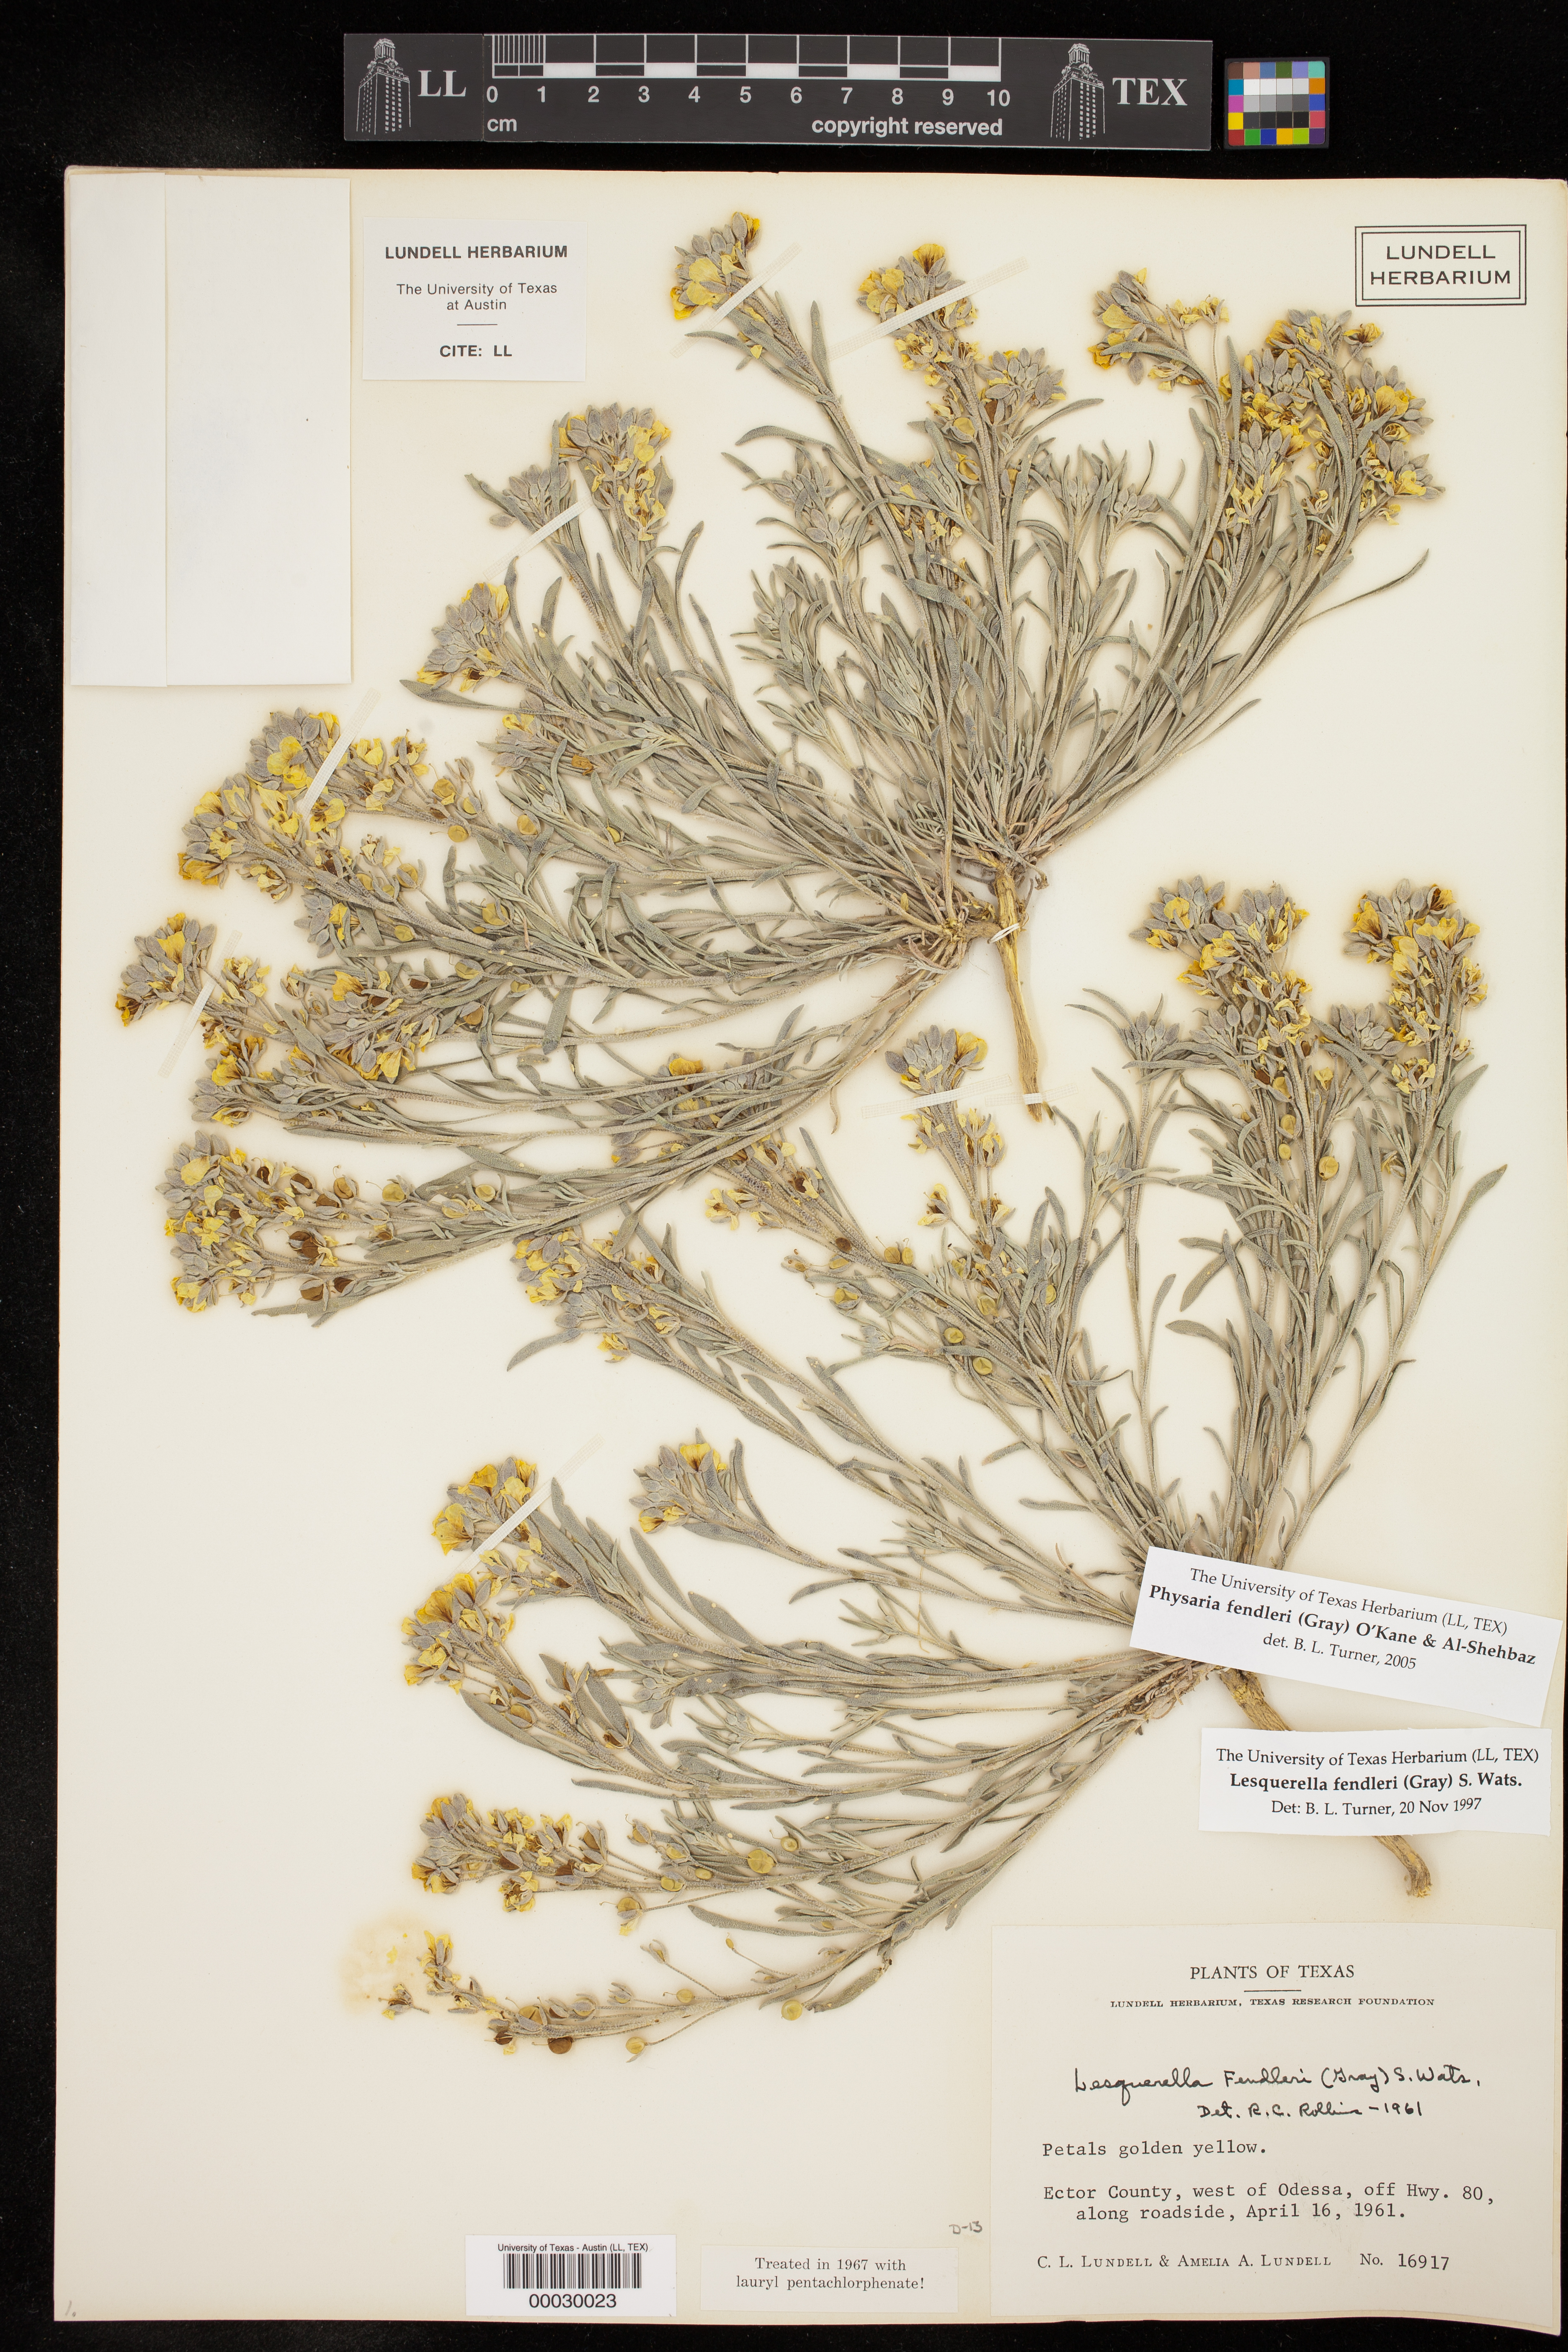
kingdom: Plantae
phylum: Tracheophyta
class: Magnoliopsida
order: Brassicales
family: Brassicaceae
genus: Physaria
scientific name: Physaria fendleri
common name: Fendler's bladderpod
